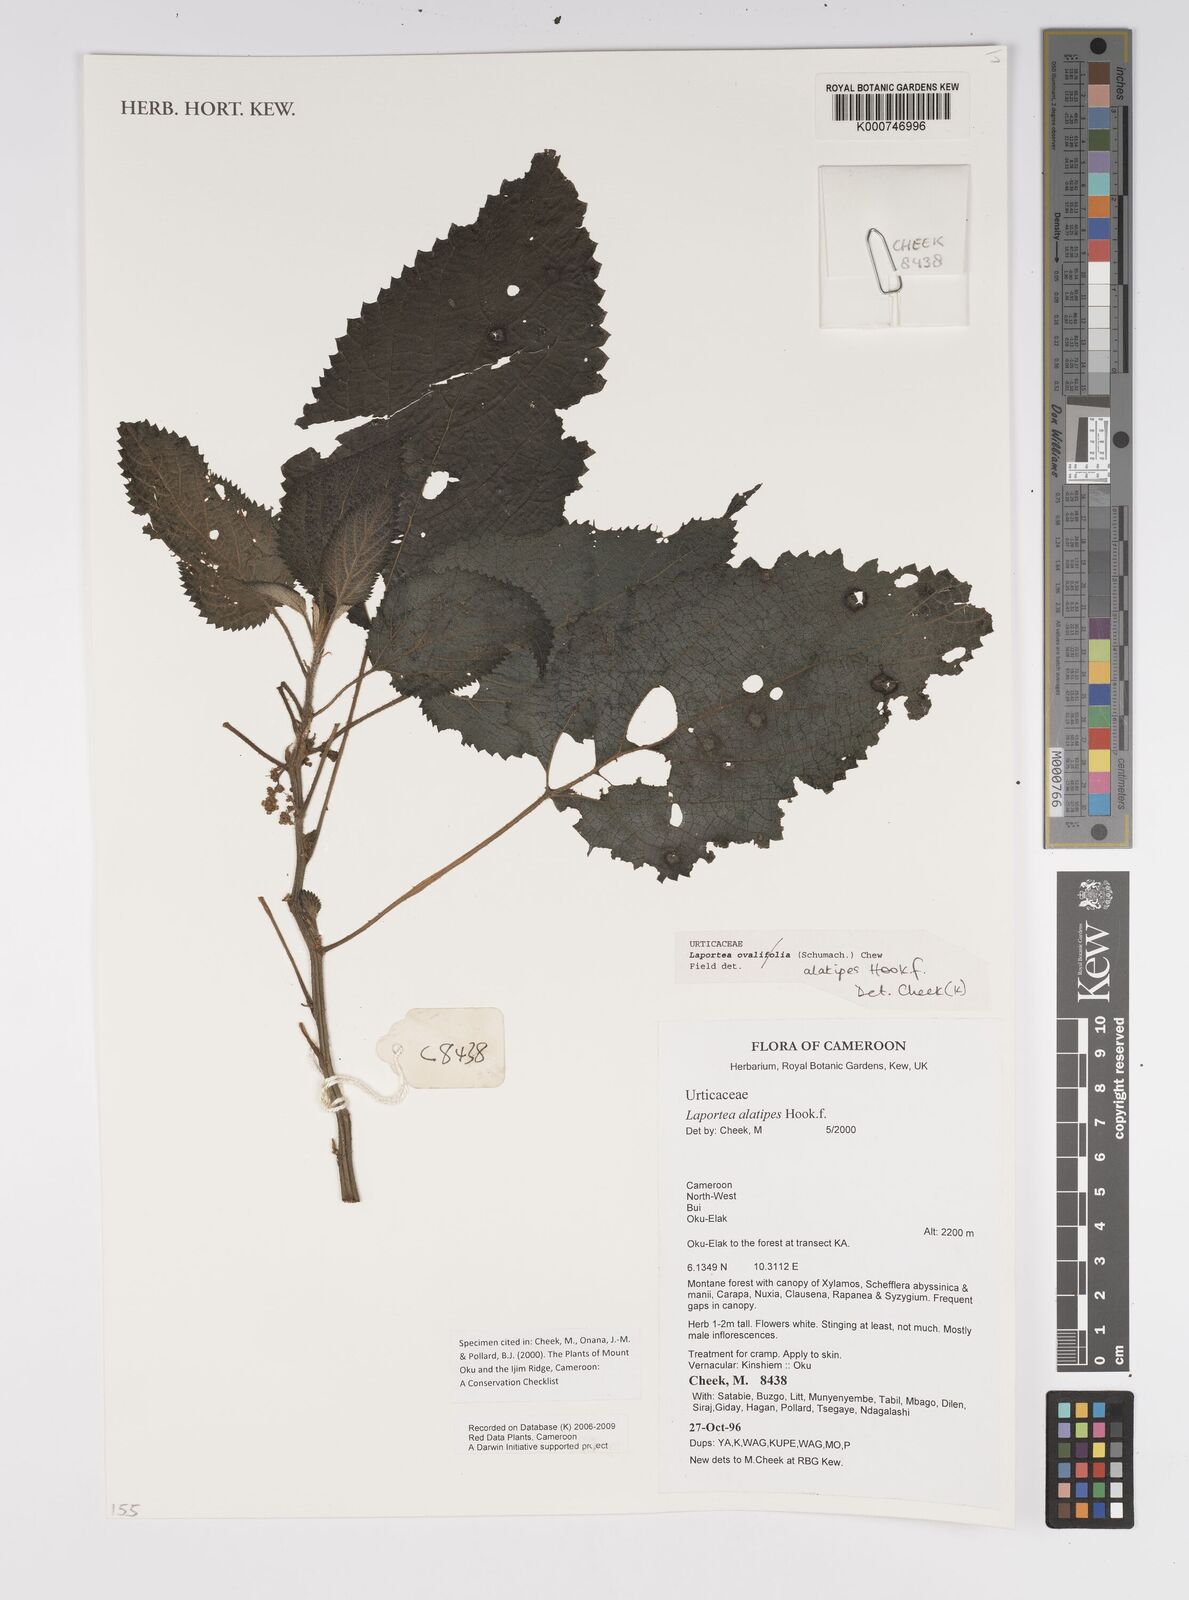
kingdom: Plantae
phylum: Tracheophyta
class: Magnoliopsida
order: Rosales
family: Urticaceae
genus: Laportea
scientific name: Laportea alatipes
